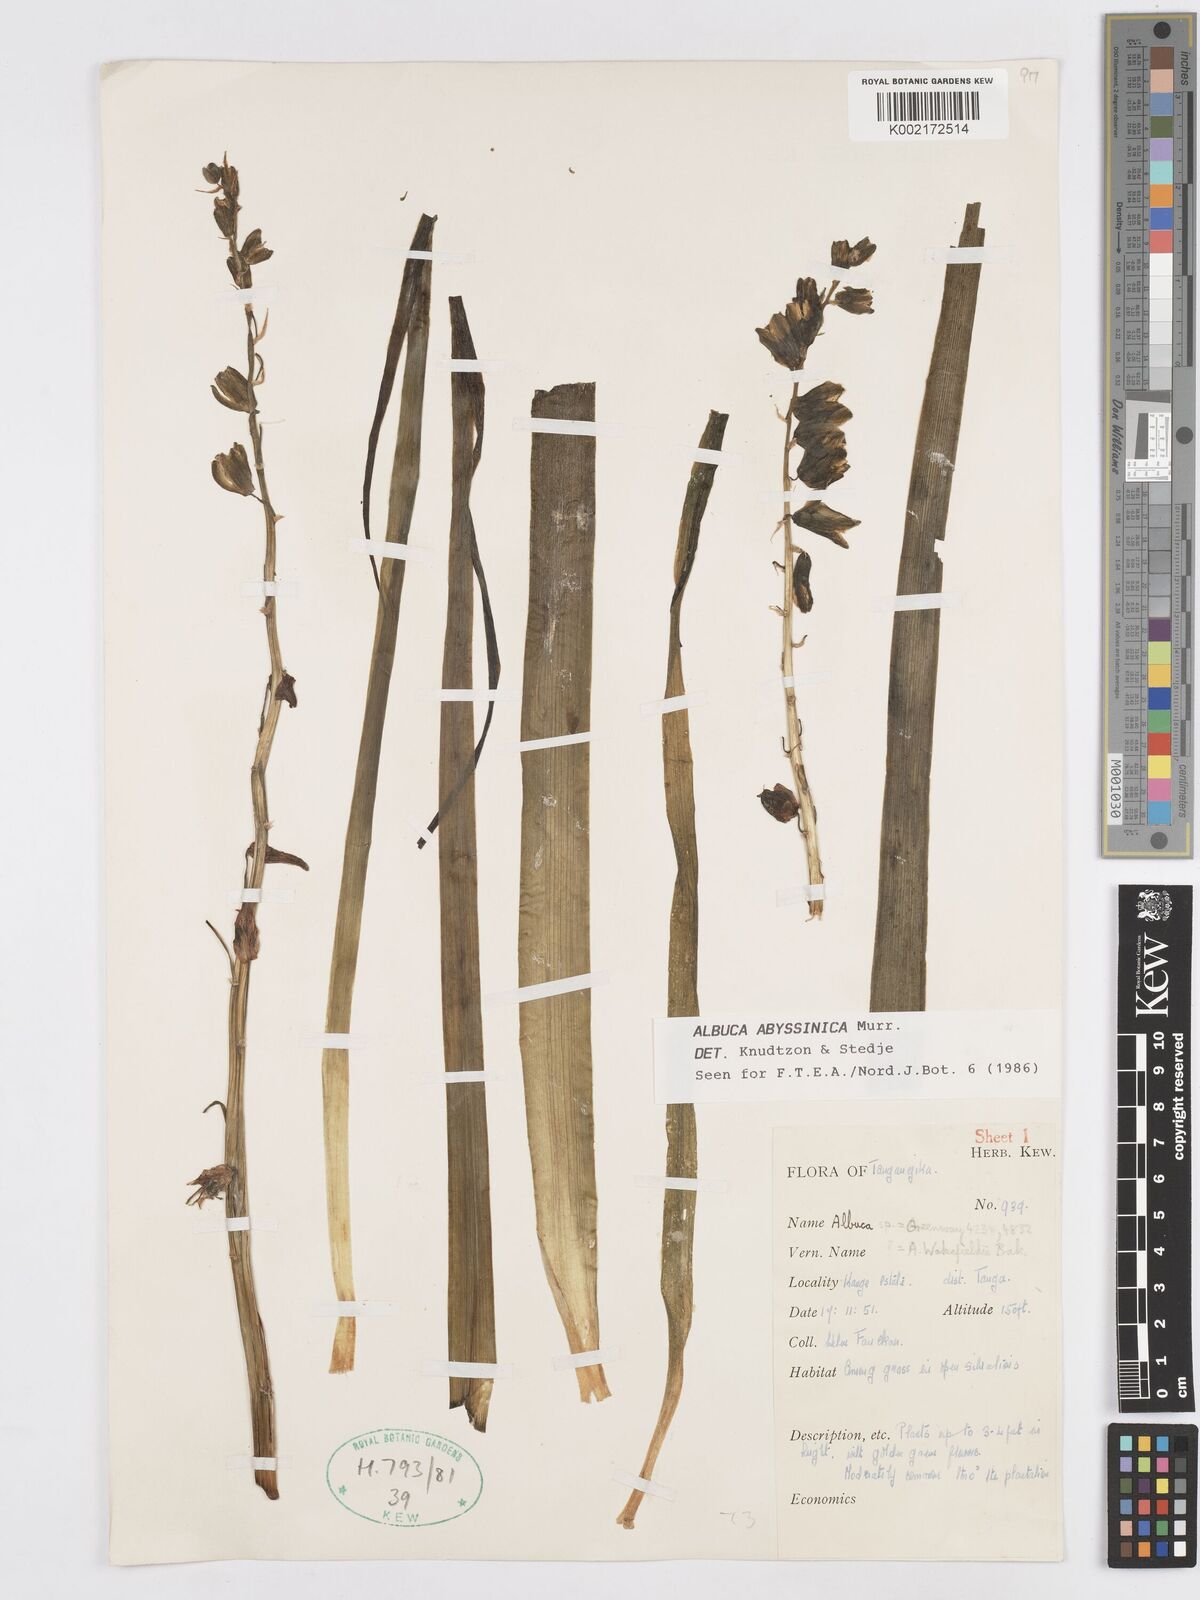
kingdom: Plantae
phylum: Tracheophyta
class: Liliopsida
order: Asparagales
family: Asparagaceae
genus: Albuca
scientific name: Albuca abyssinica
